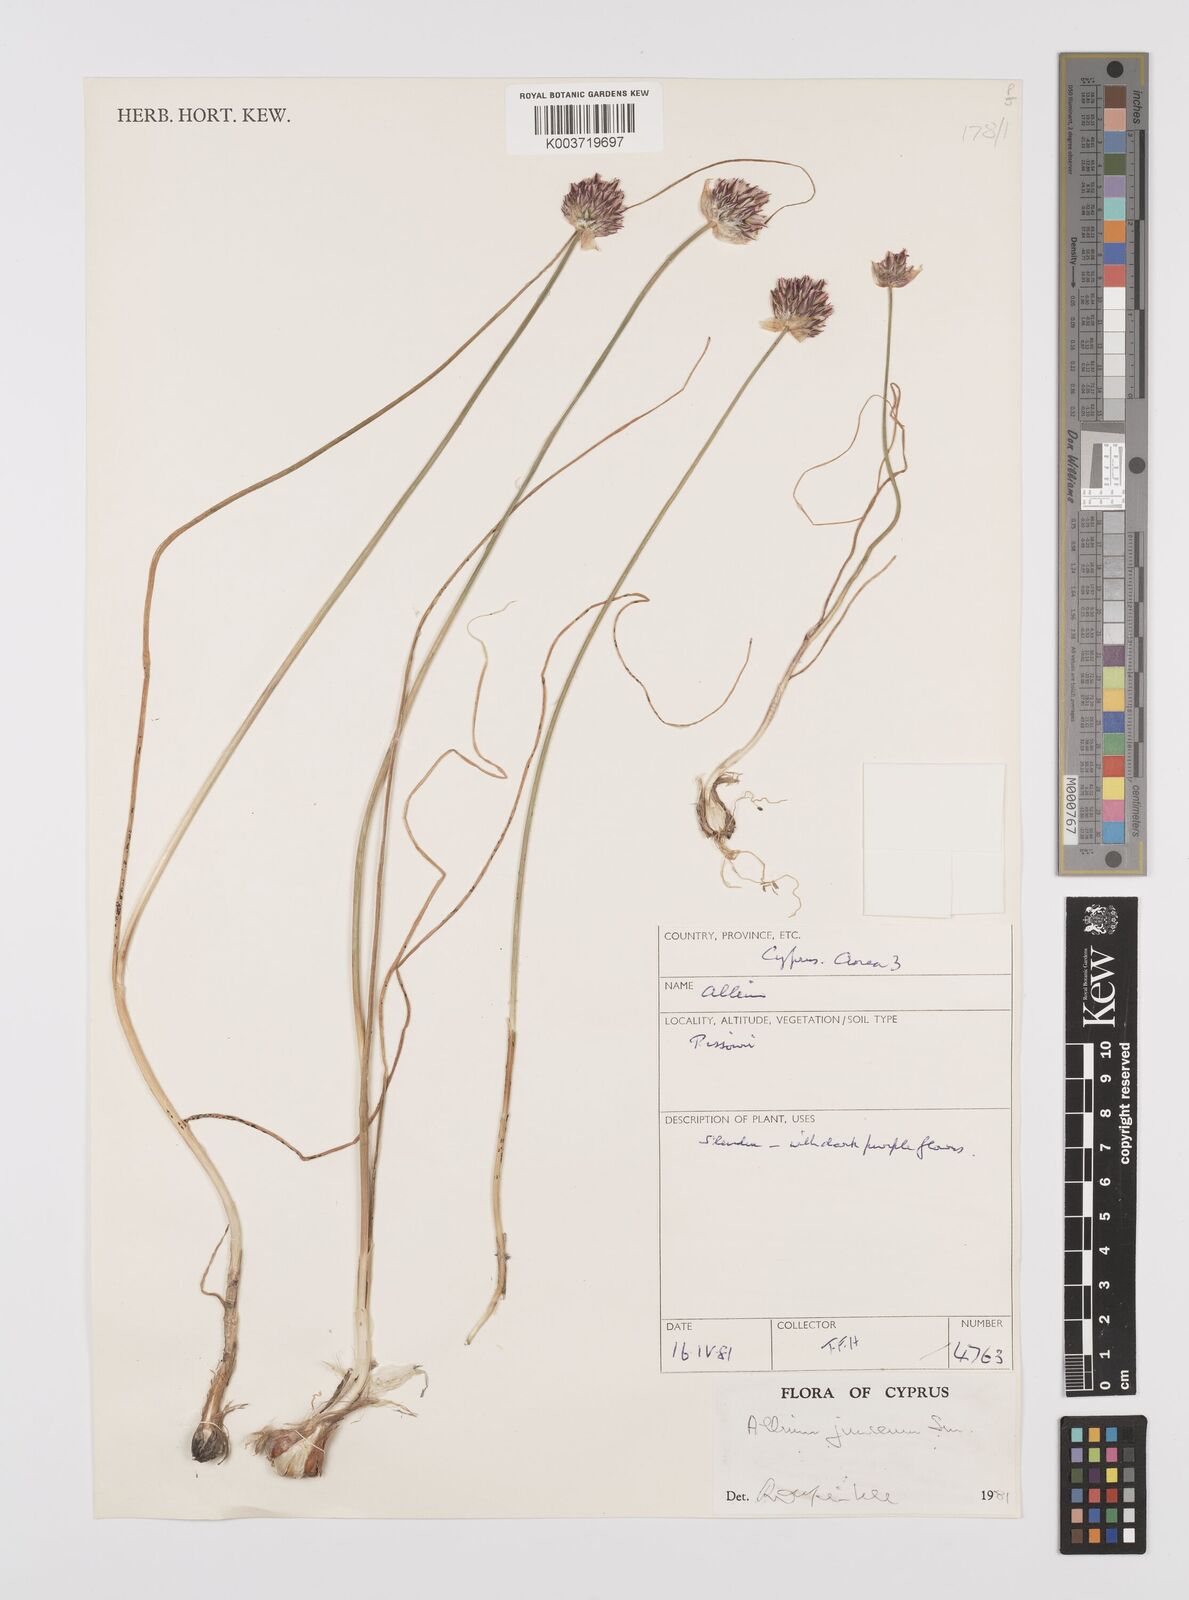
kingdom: Plantae
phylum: Tracheophyta
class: Liliopsida
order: Asparagales
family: Amaryllidaceae
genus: Allium
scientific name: Allium junceum
